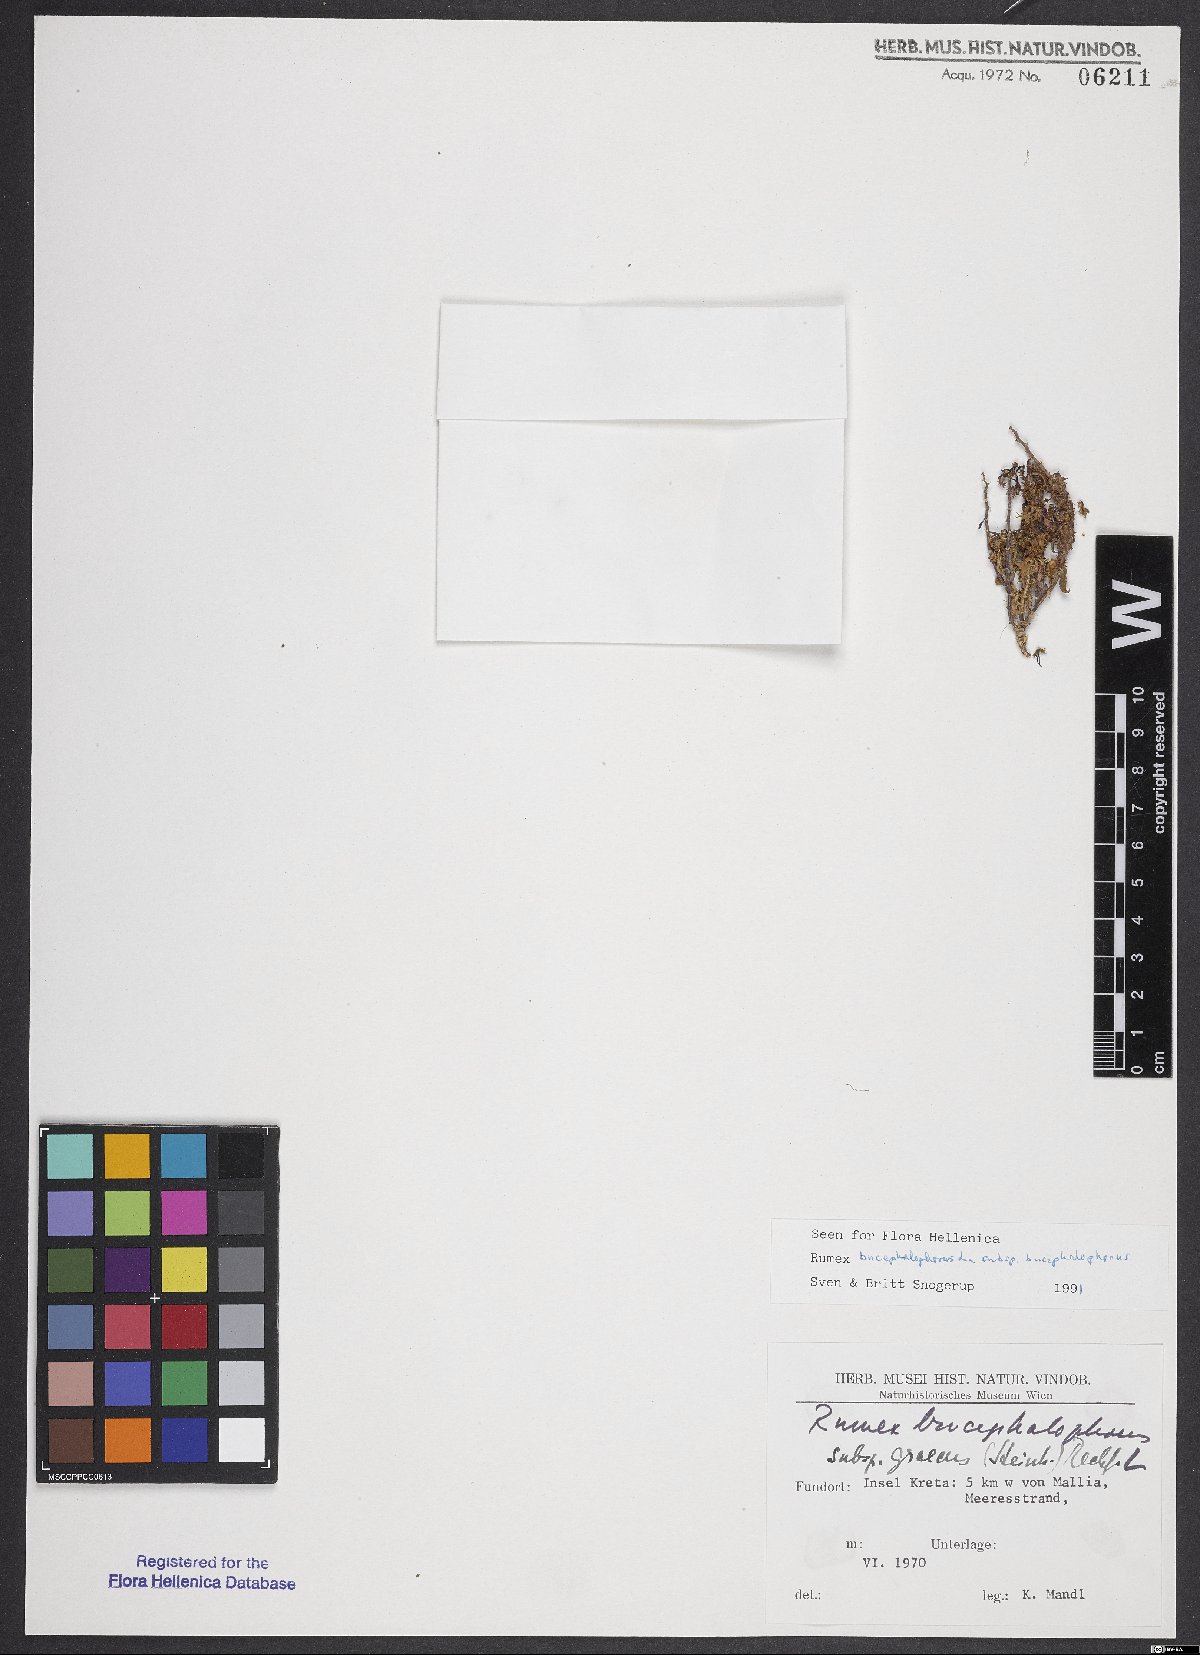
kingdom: Plantae
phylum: Tracheophyta
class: Magnoliopsida
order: Caryophyllales
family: Polygonaceae
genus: Rumex
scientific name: Rumex bucephalophorus
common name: Red dock
